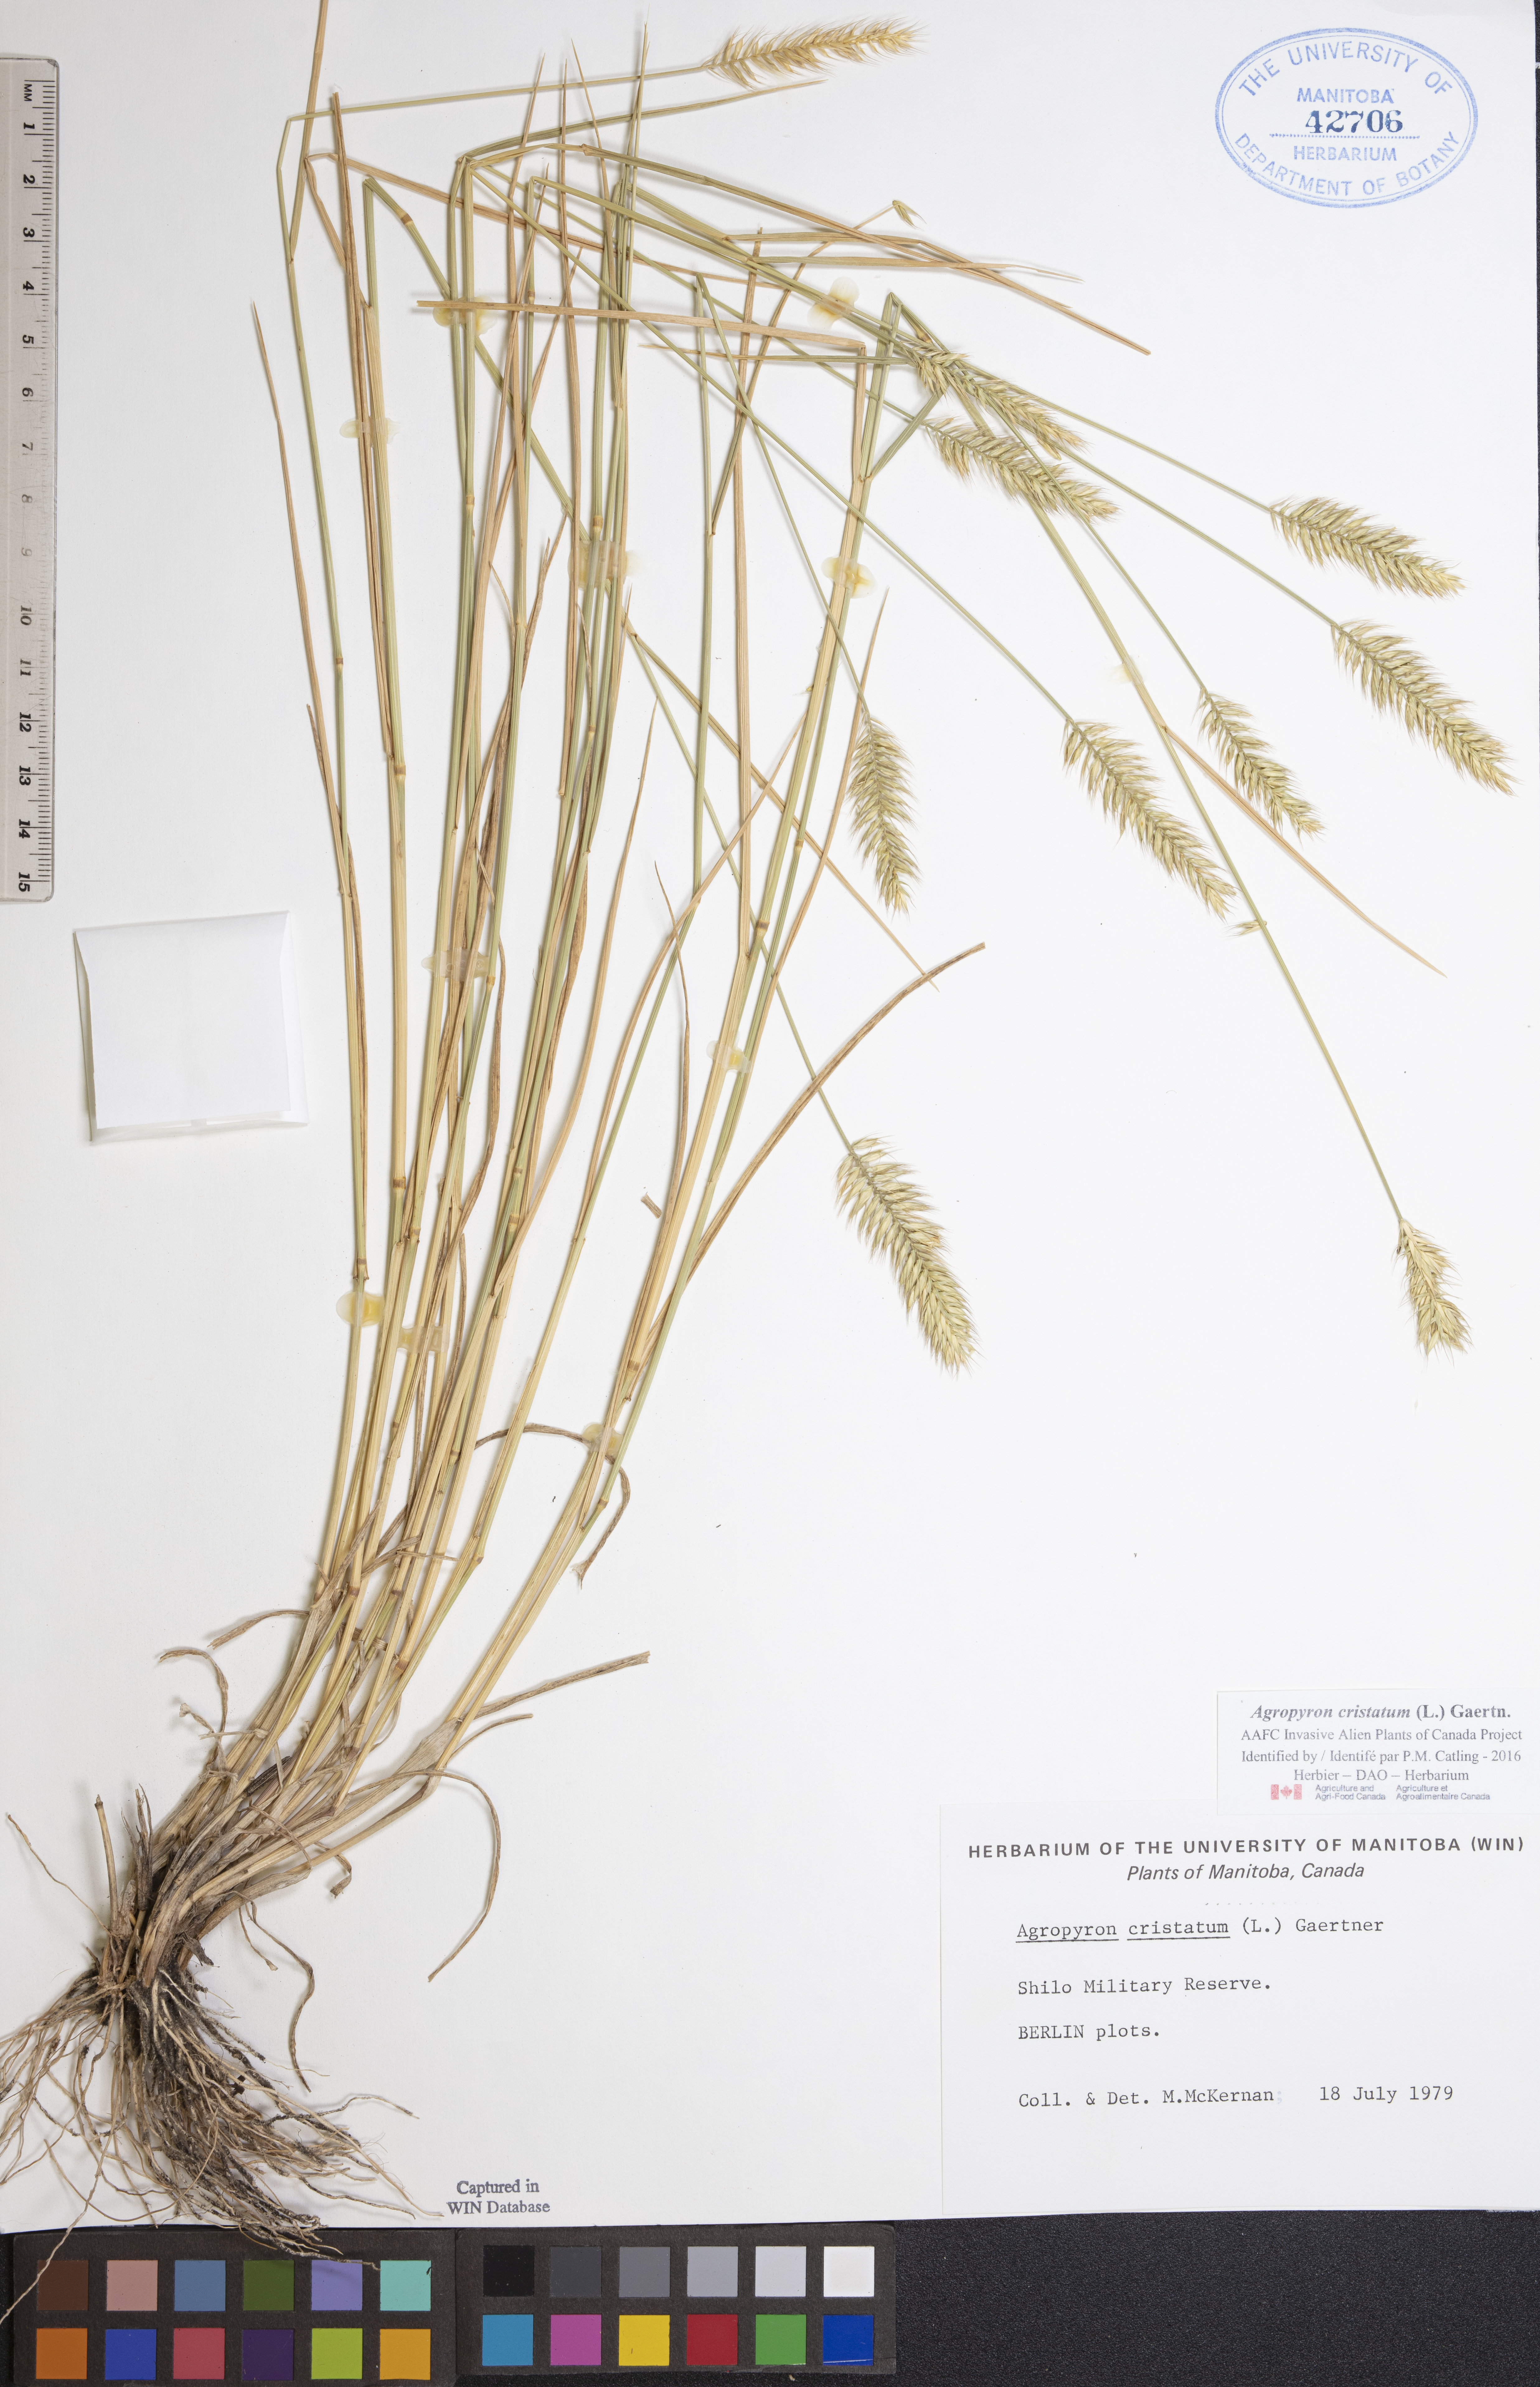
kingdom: Plantae
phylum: Tracheophyta
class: Liliopsida
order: Poales
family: Poaceae
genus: Agropyron
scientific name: Agropyron cristatum
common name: Crested wheatgrass
